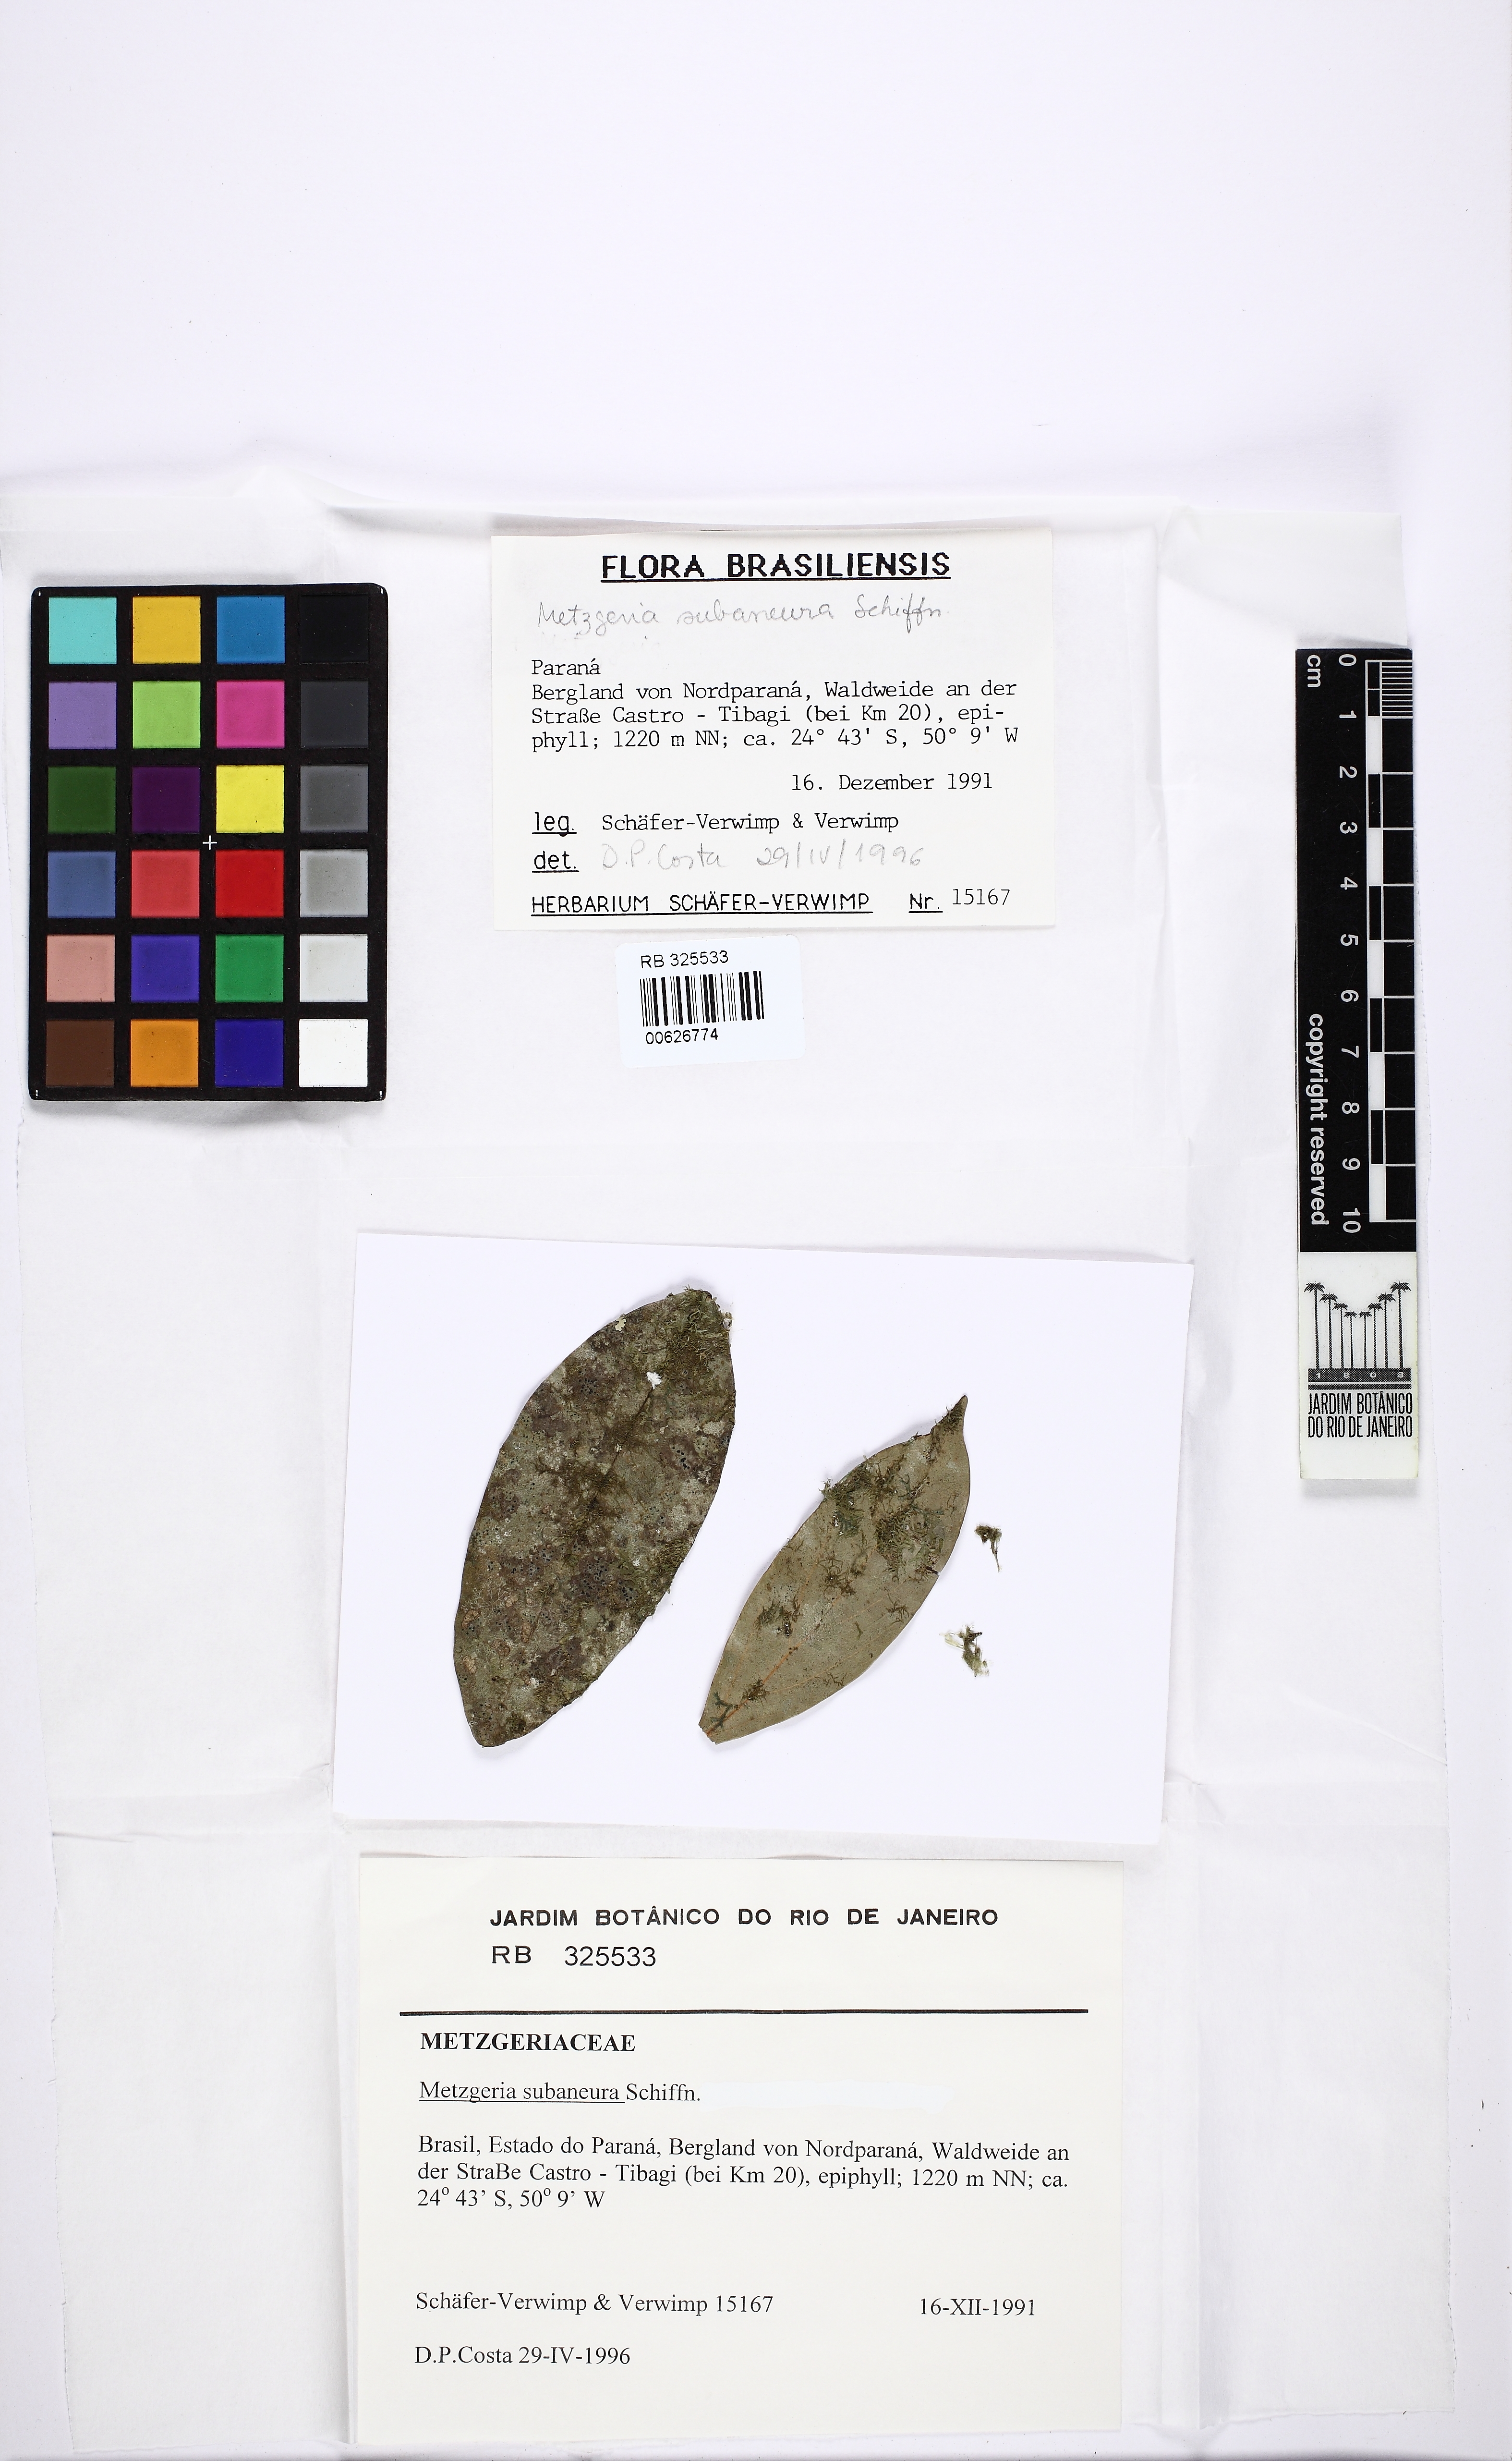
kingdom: Plantae
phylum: Marchantiophyta
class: Jungermanniopsida
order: Metzgeriales
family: Metzgeriaceae
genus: Metzgeria
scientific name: Metzgeria subaneura
